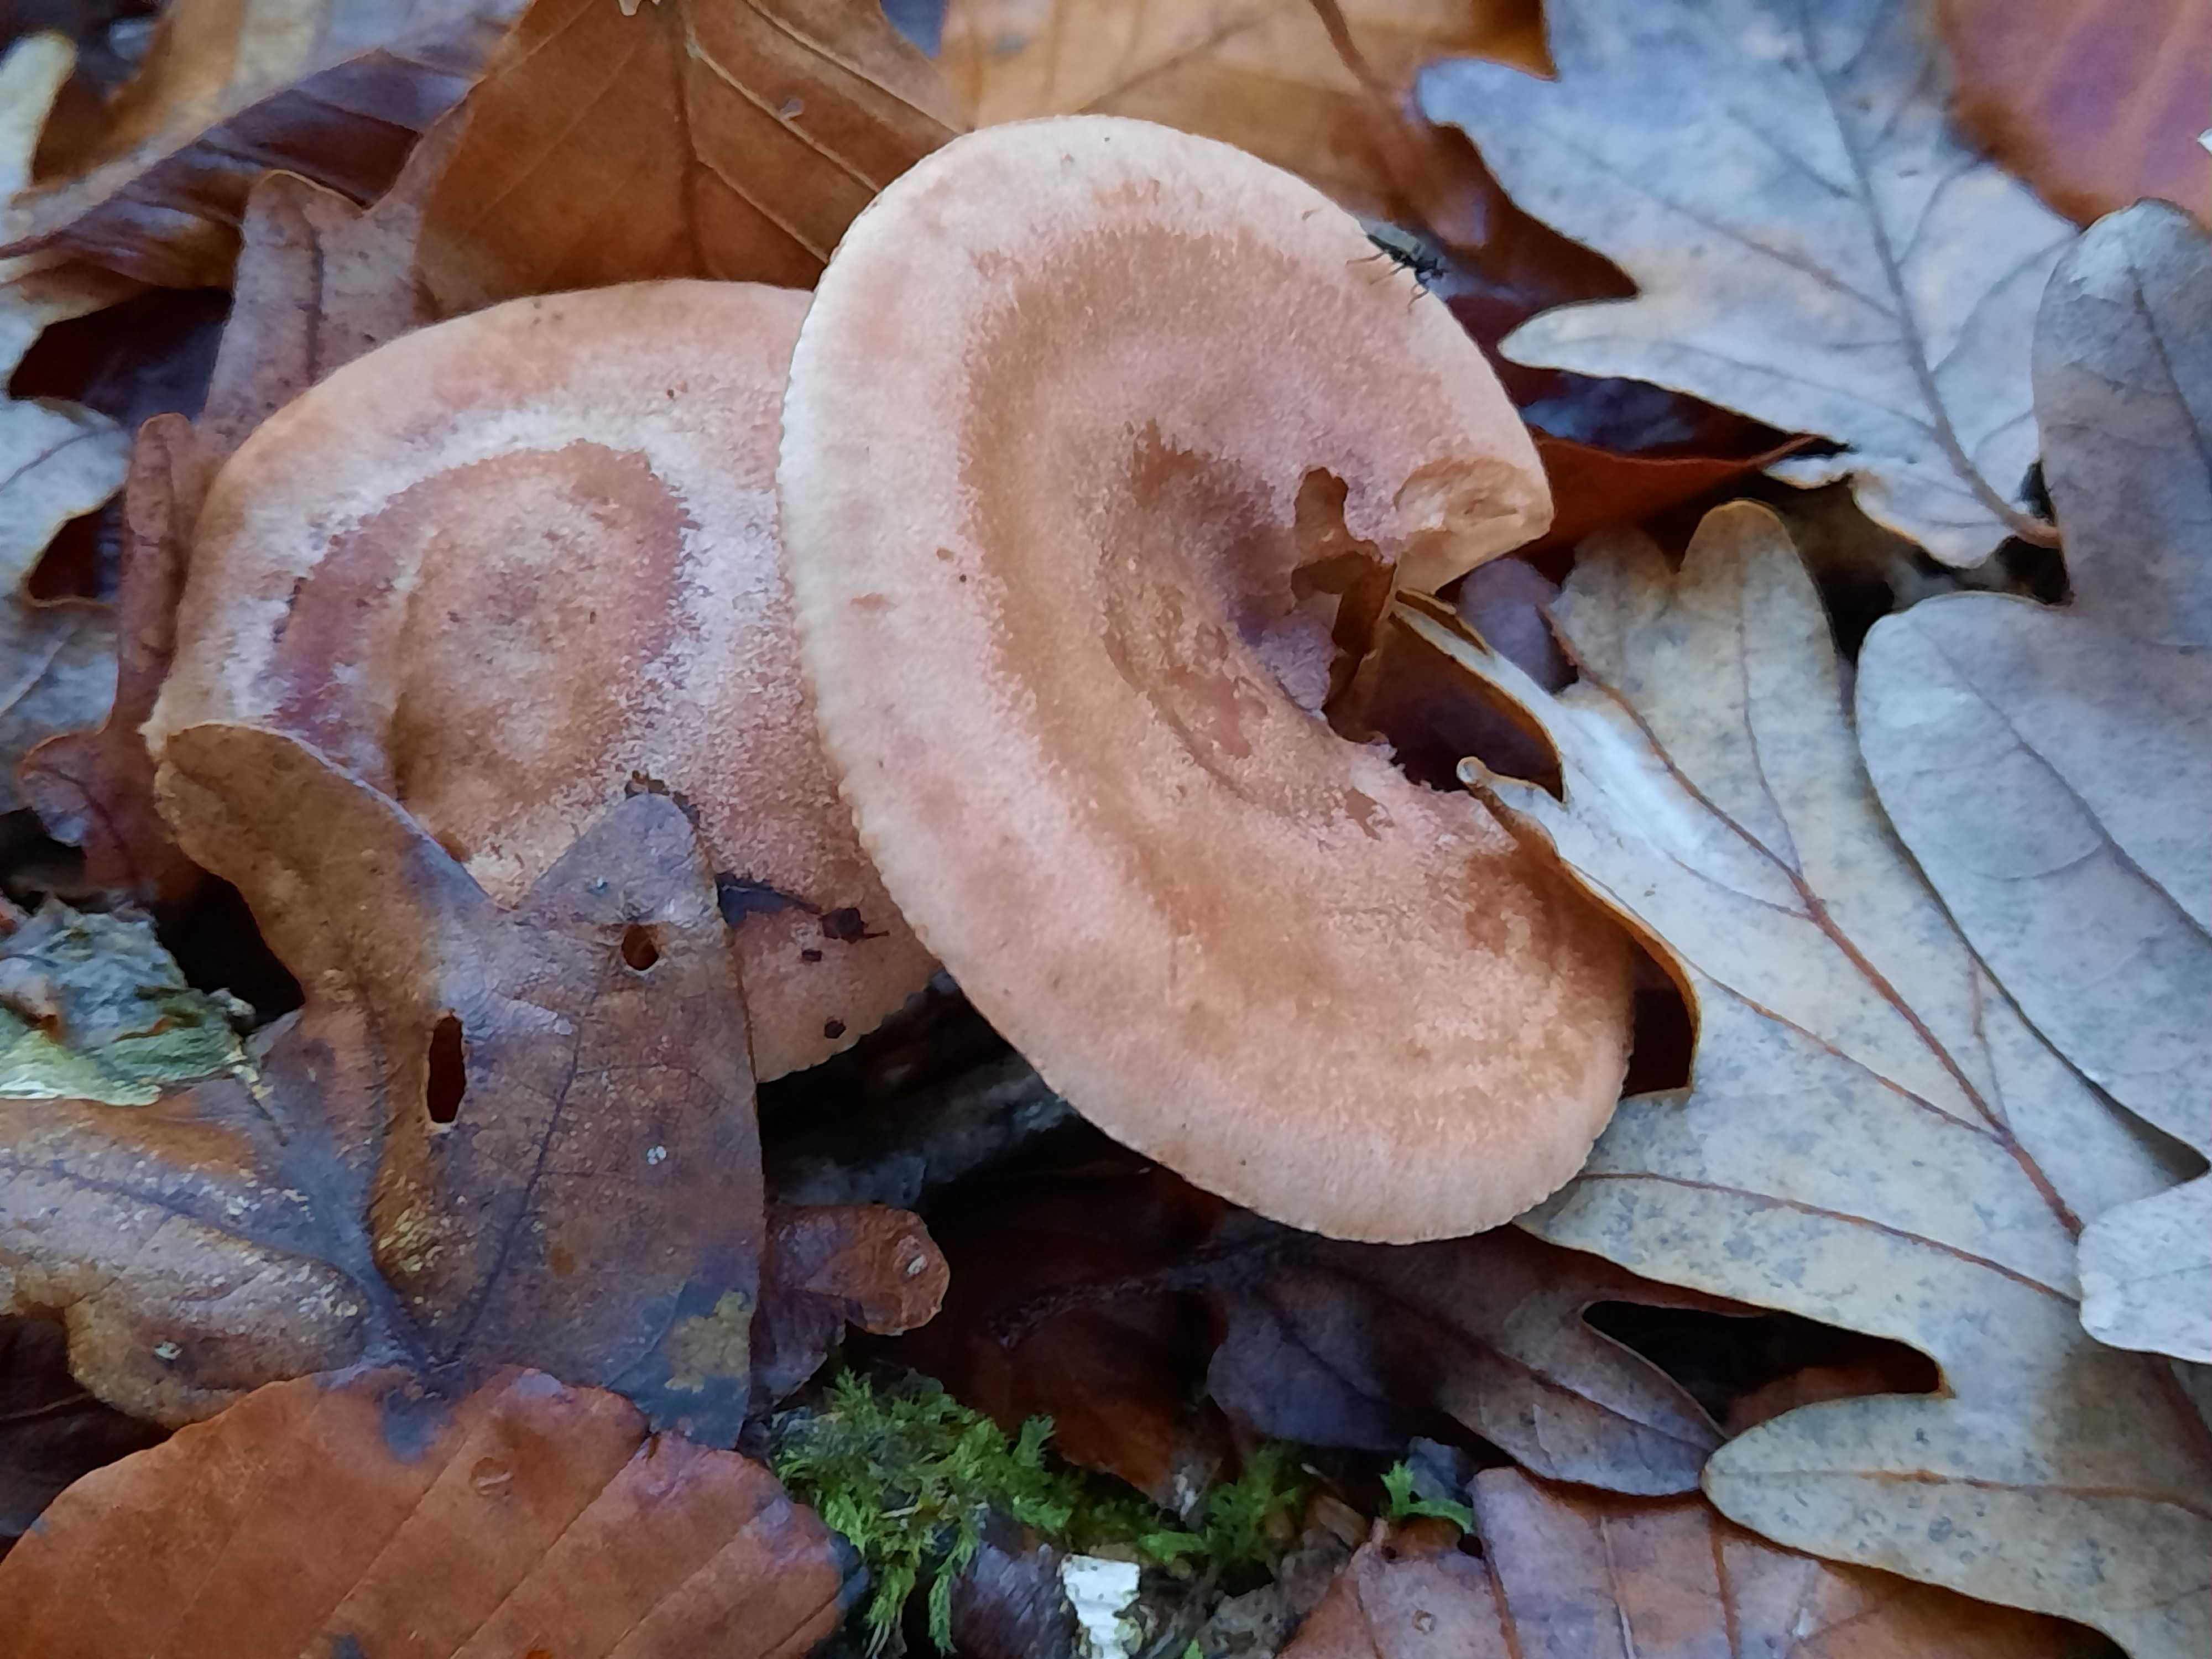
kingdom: Fungi
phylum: Basidiomycota
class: Agaricomycetes
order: Russulales
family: Russulaceae
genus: Lactarius
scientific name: Lactarius quietus
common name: ege-mælkehat
